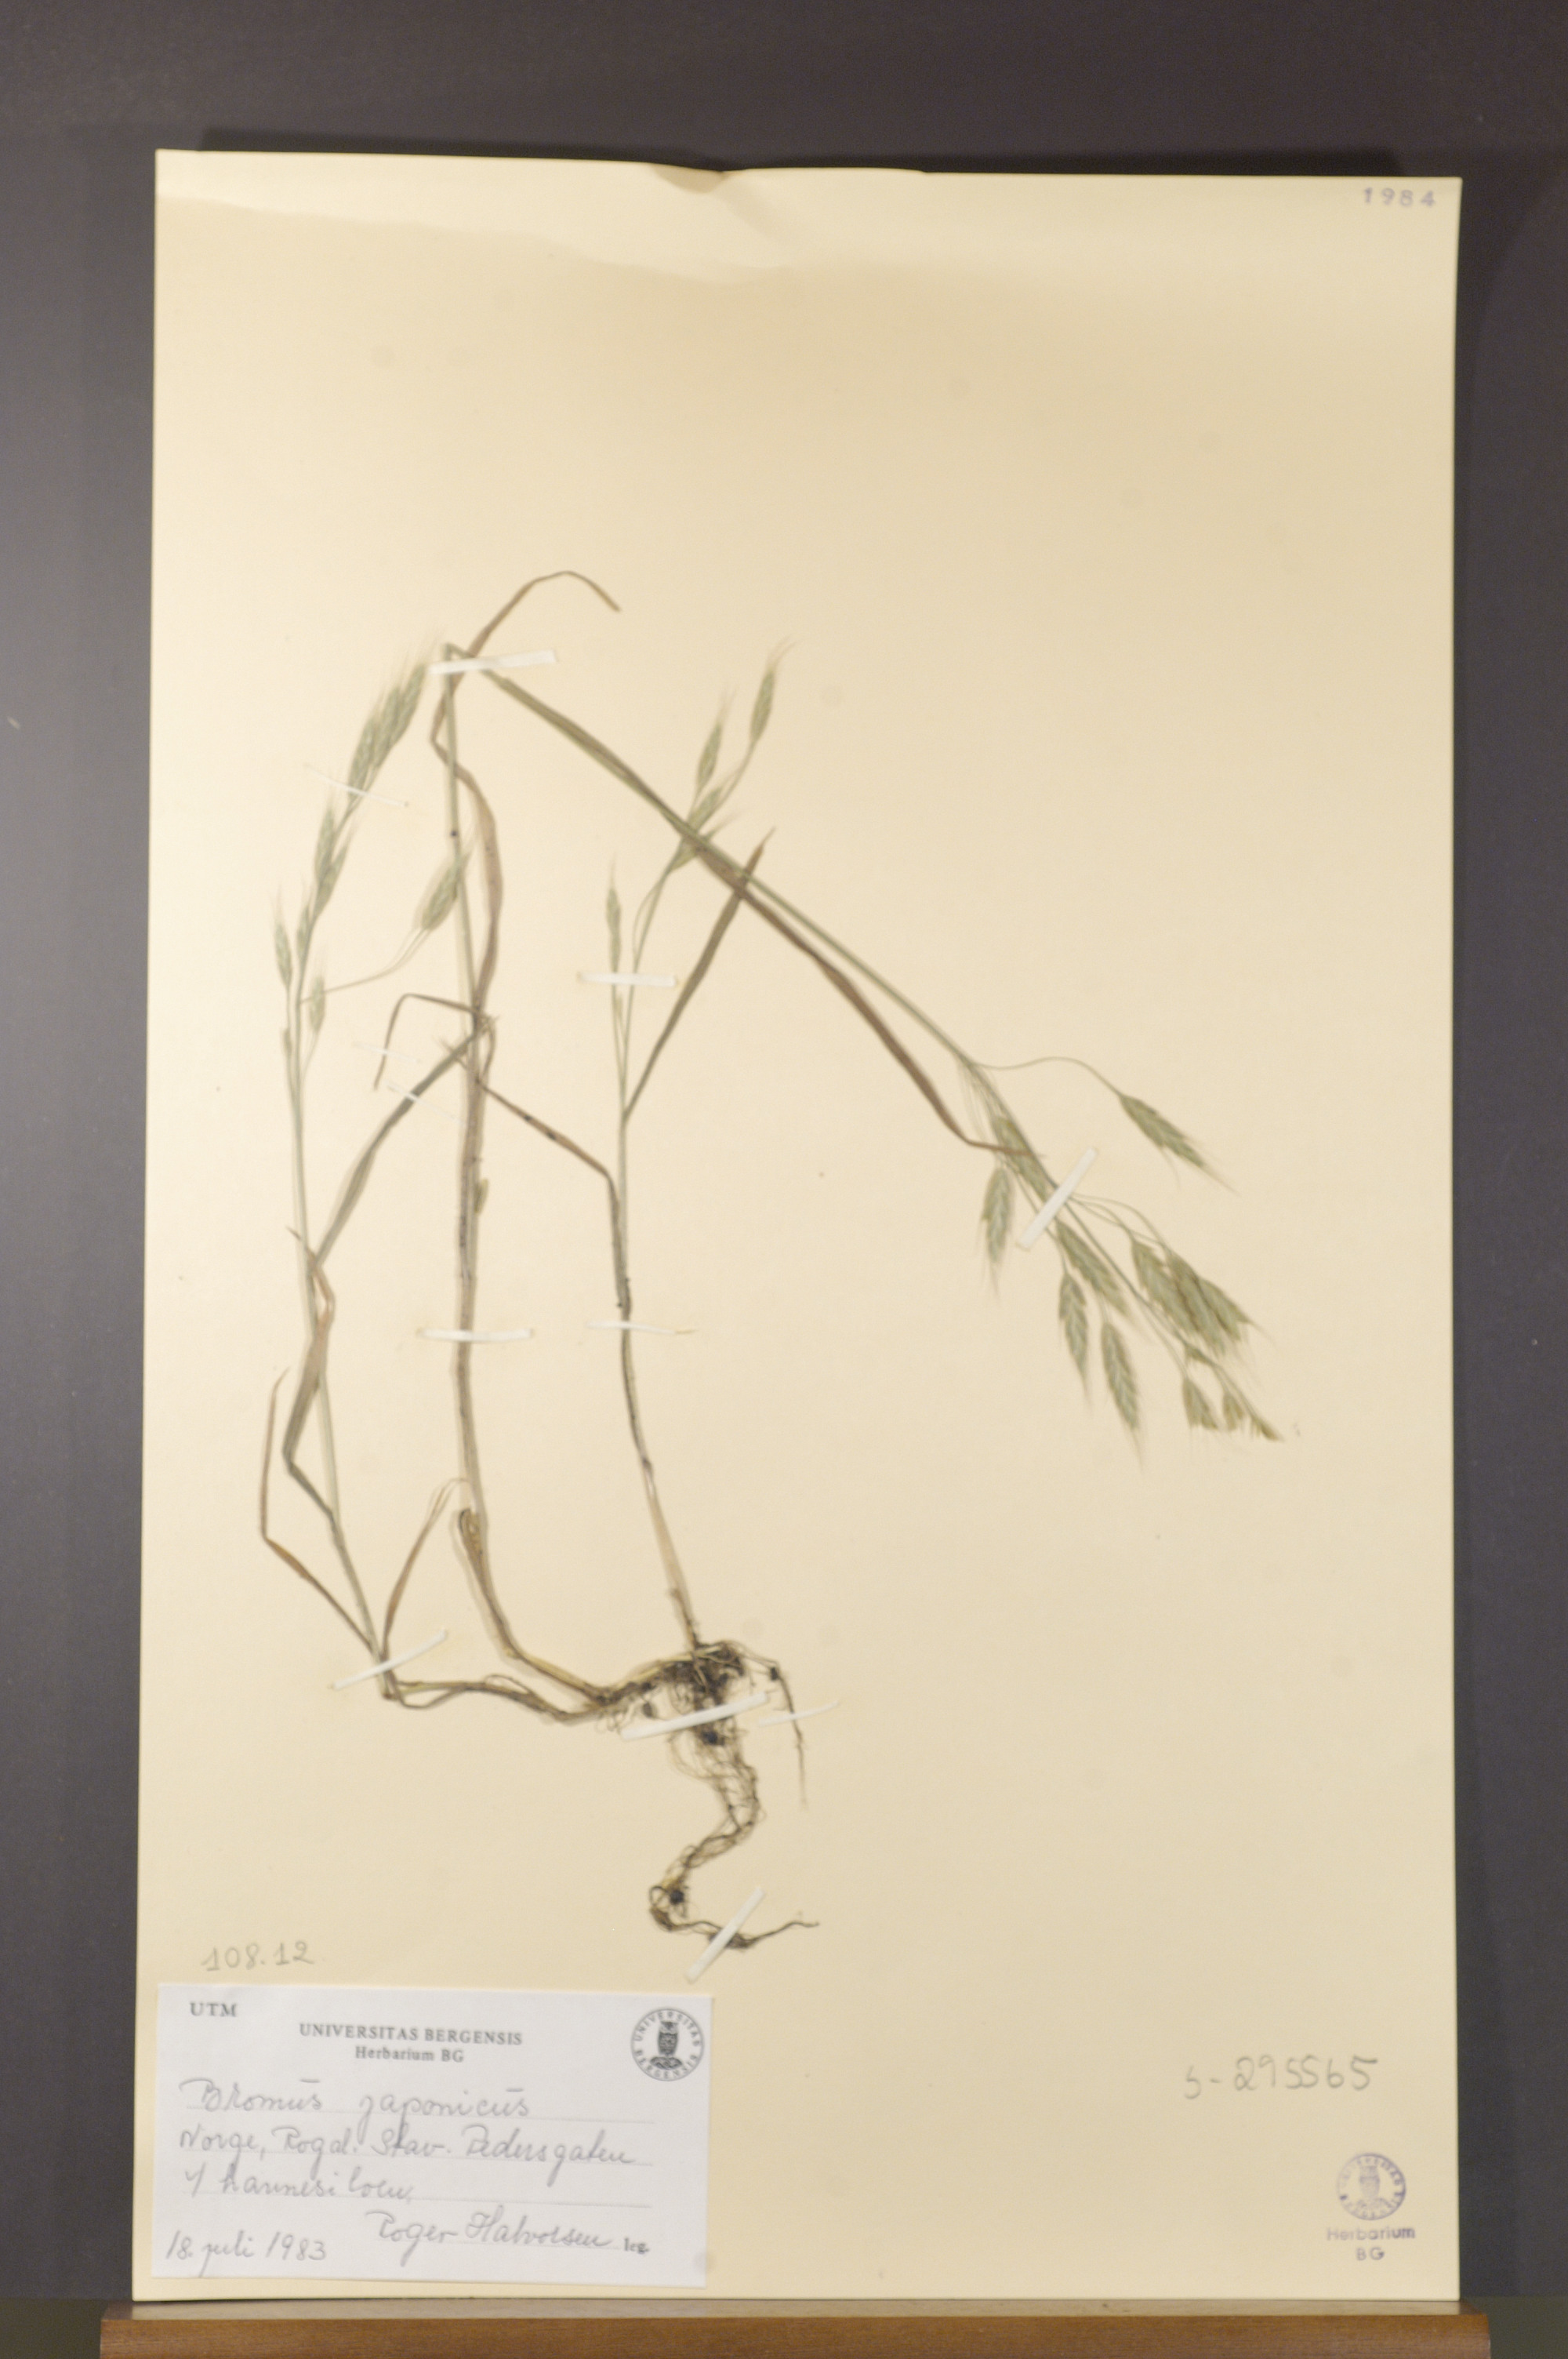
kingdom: Plantae
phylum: Tracheophyta
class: Liliopsida
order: Poales
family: Poaceae
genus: Bromus
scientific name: Bromus japonicus
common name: Japanese brome
